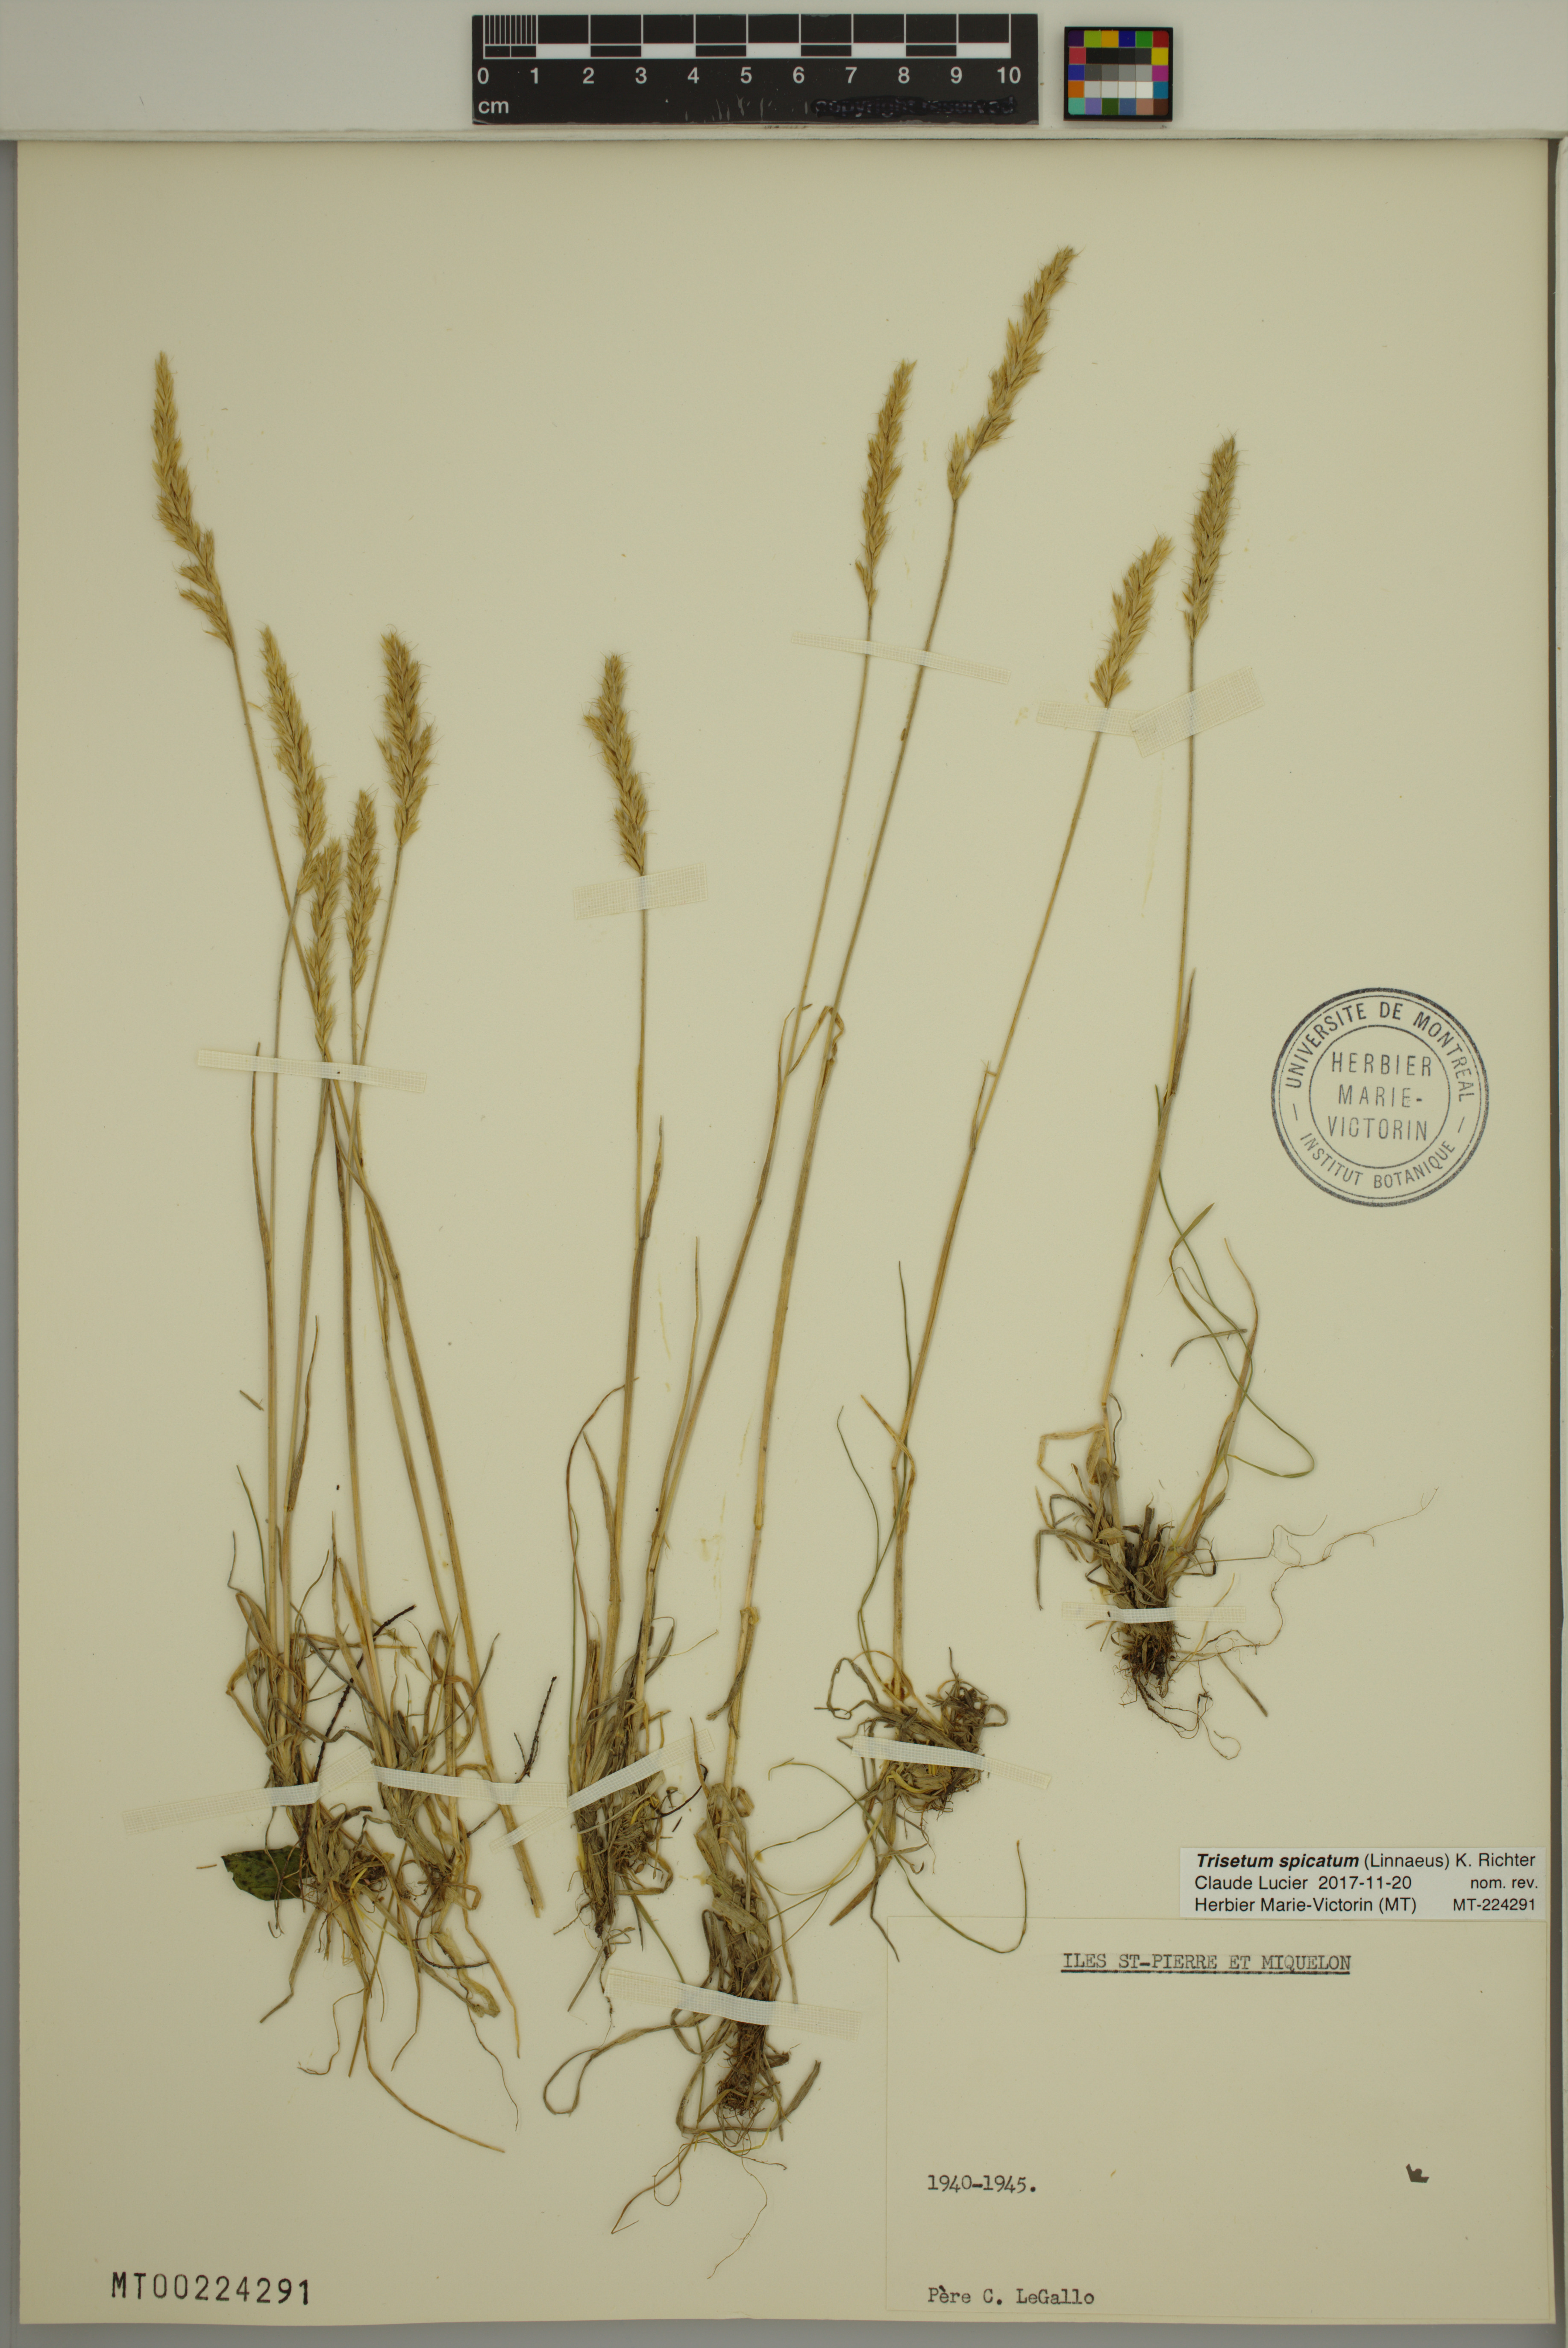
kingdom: Plantae
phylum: Tracheophyta
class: Liliopsida
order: Poales
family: Poaceae
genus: Koeleria
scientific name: Koeleria spicata
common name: Mountain trisetum
